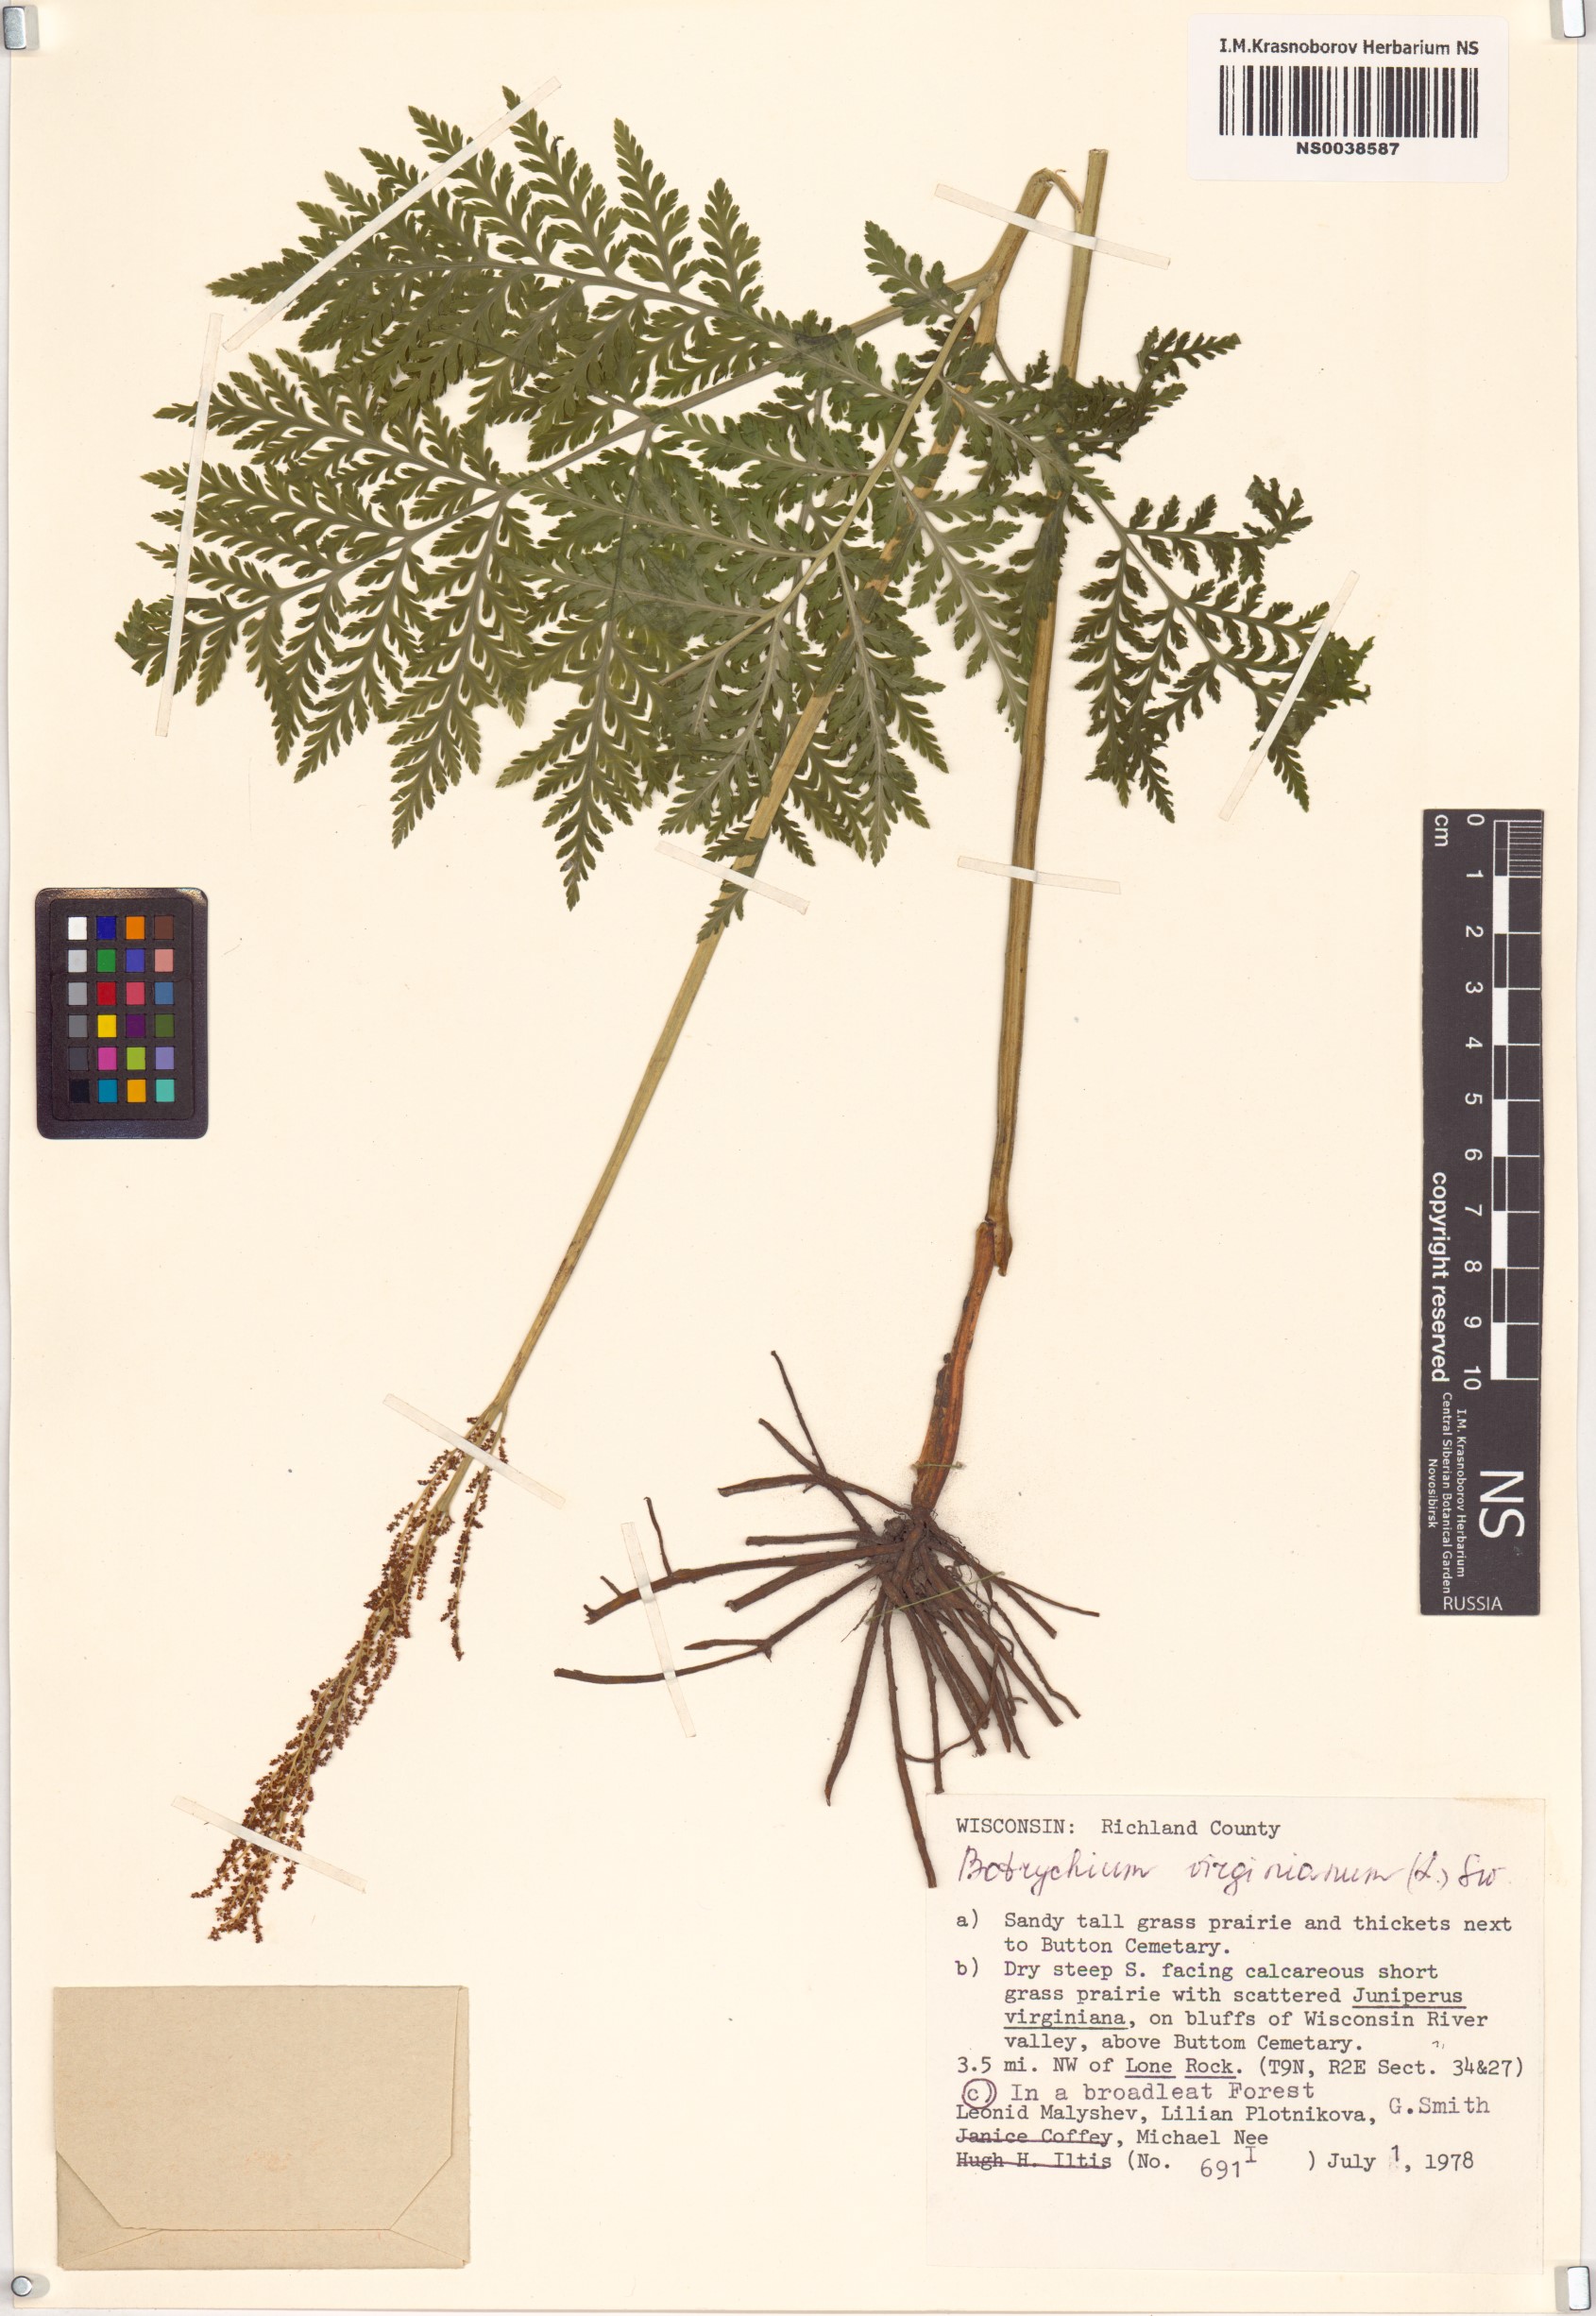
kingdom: Plantae
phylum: Tracheophyta
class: Polypodiopsida
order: Ophioglossales
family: Ophioglossaceae
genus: Botrypus
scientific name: Botrypus virginianus
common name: Common grapefern
